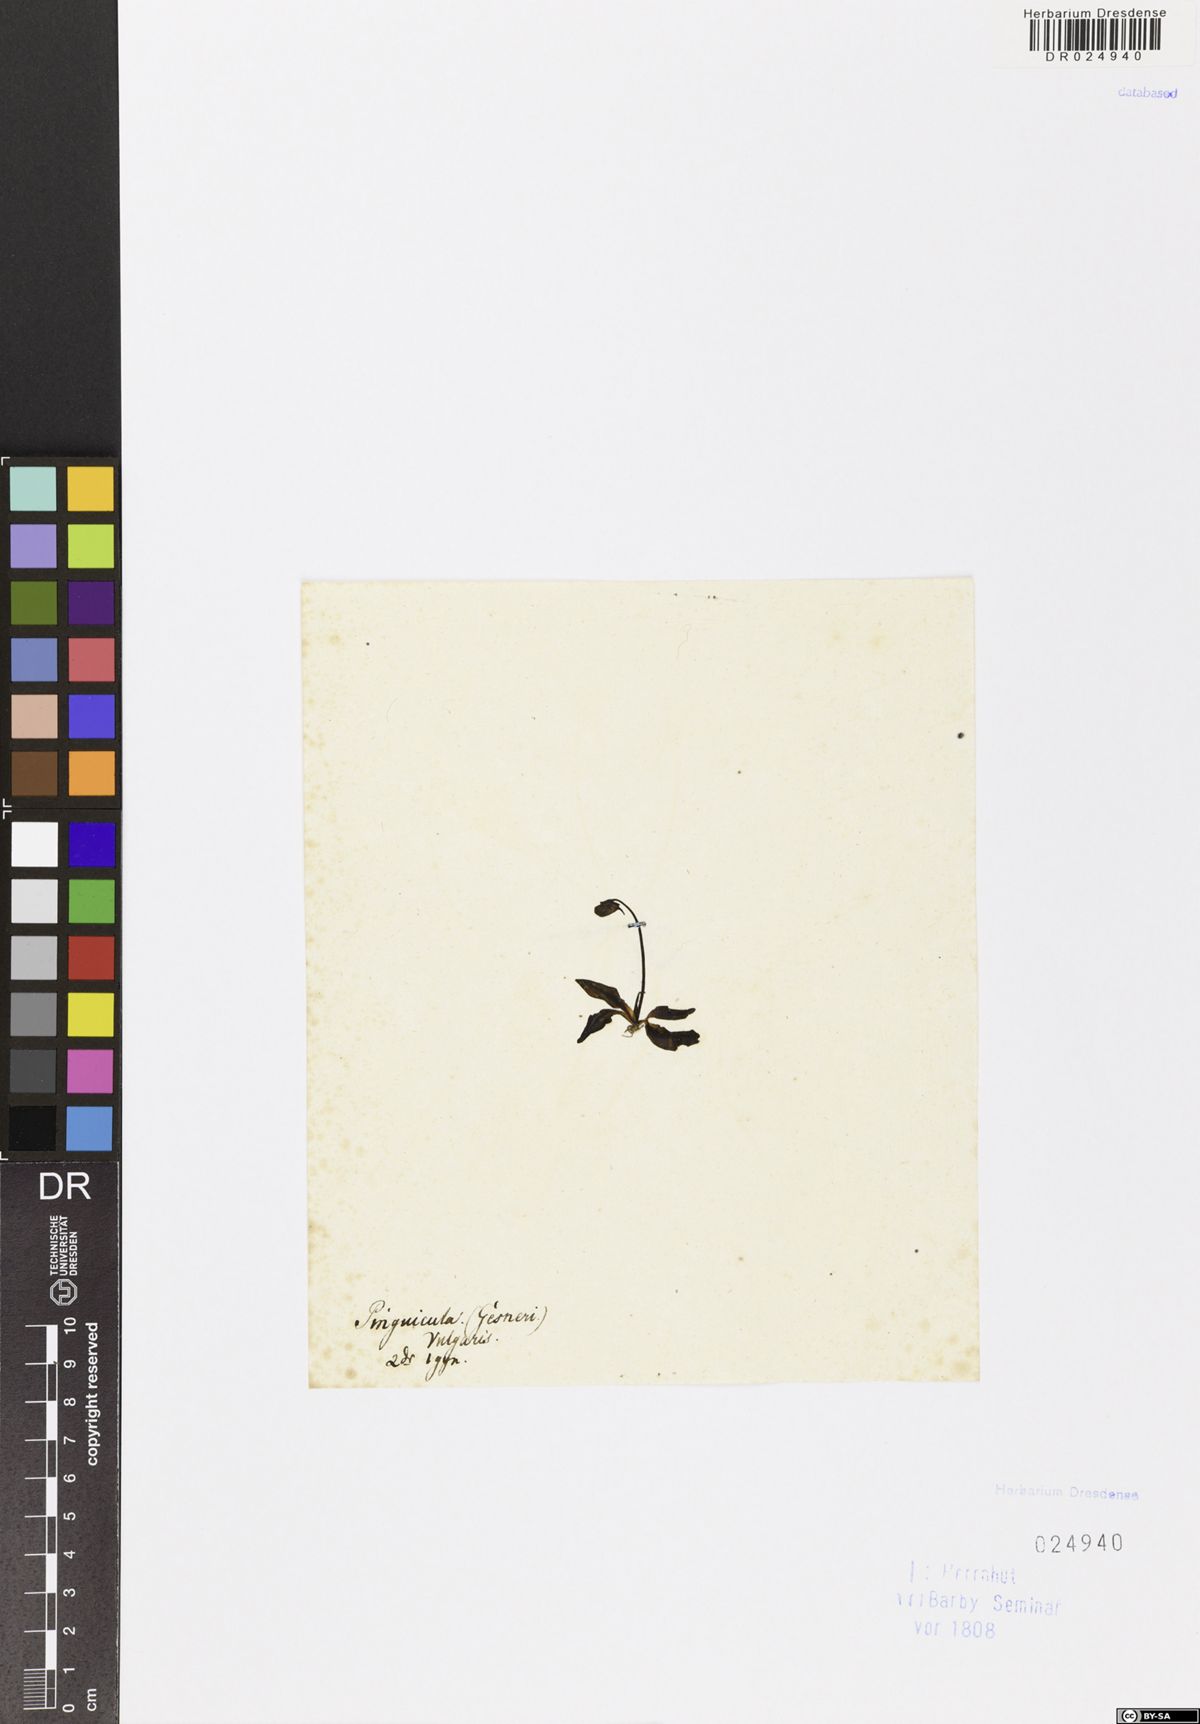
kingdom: Plantae
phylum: Tracheophyta
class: Magnoliopsida
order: Lamiales
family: Lentibulariaceae
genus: Pinguicula
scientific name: Pinguicula vulgaris
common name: Common butterwort
